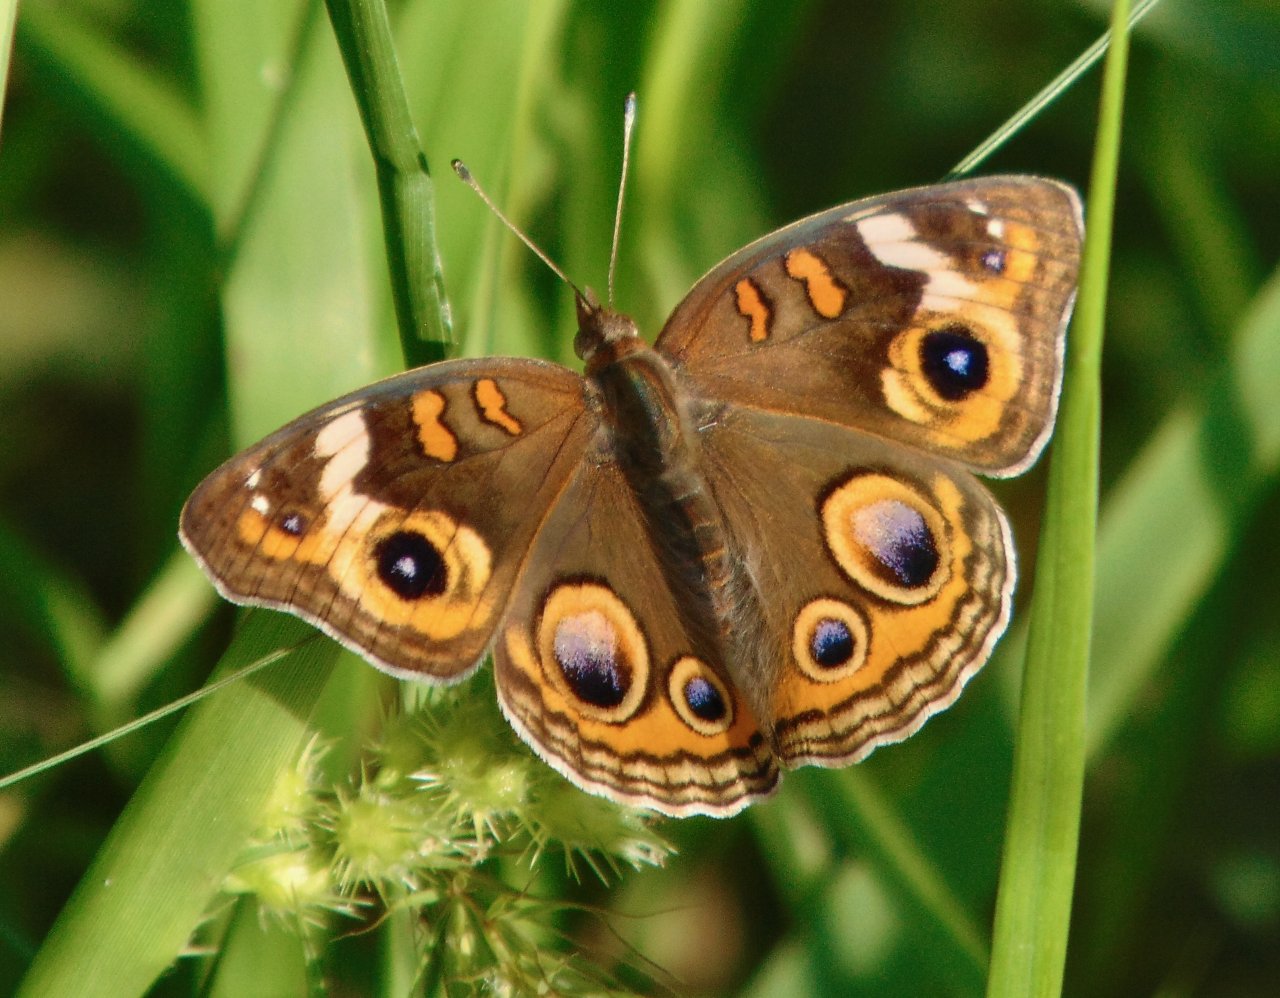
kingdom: Animalia
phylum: Arthropoda
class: Insecta
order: Lepidoptera
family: Nymphalidae
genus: Junonia
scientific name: Junonia coenia
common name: Common Buckeye
